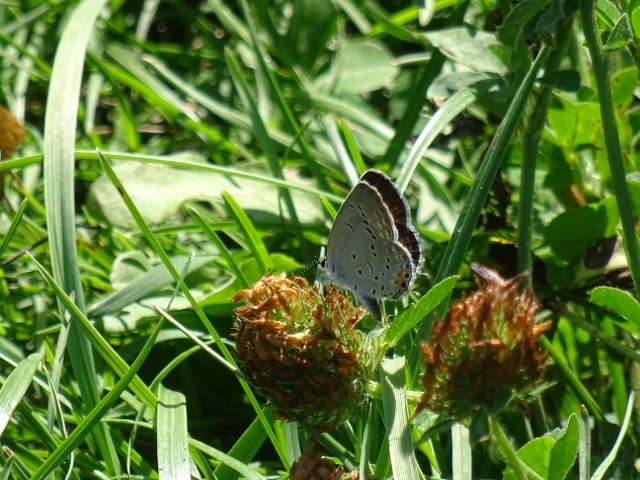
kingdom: Animalia
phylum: Arthropoda
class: Insecta
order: Lepidoptera
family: Lycaenidae
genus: Elkalyce
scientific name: Elkalyce comyntas
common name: Eastern Tailed-Blue
